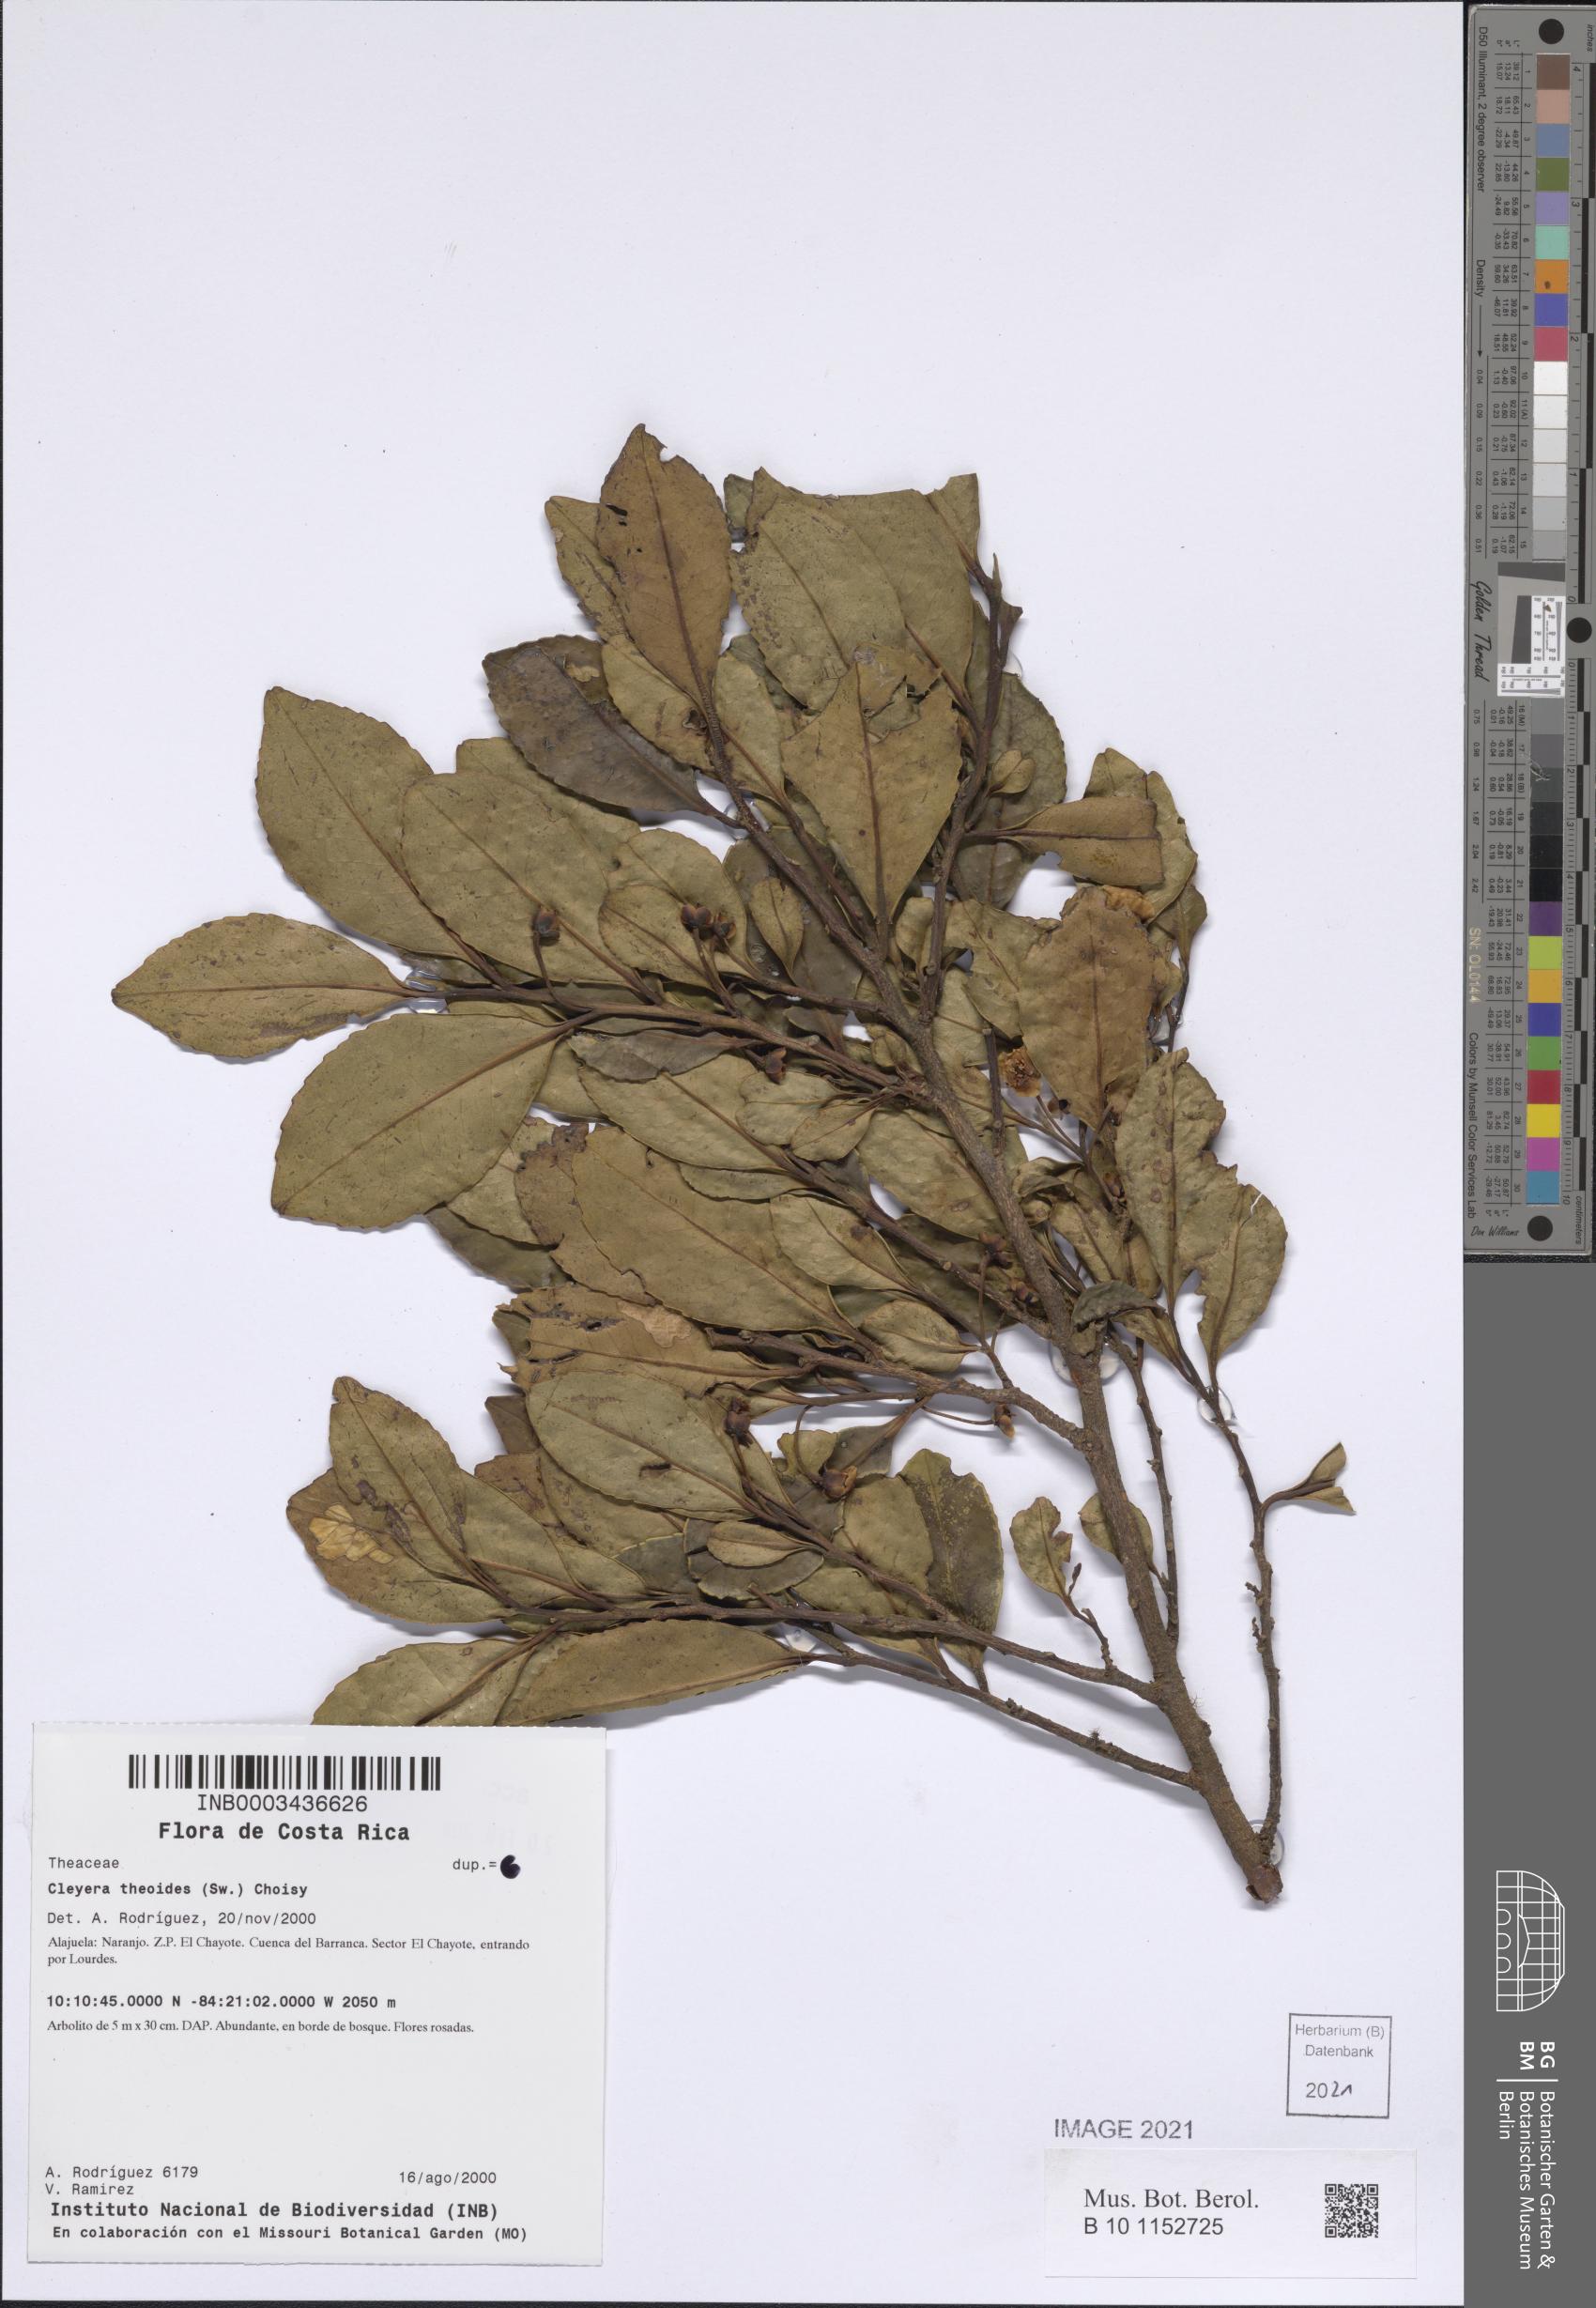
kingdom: Plantae
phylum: Tracheophyta
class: Magnoliopsida
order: Ericales
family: Pentaphylacaceae
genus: Cleyera
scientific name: Cleyera theaeoides
